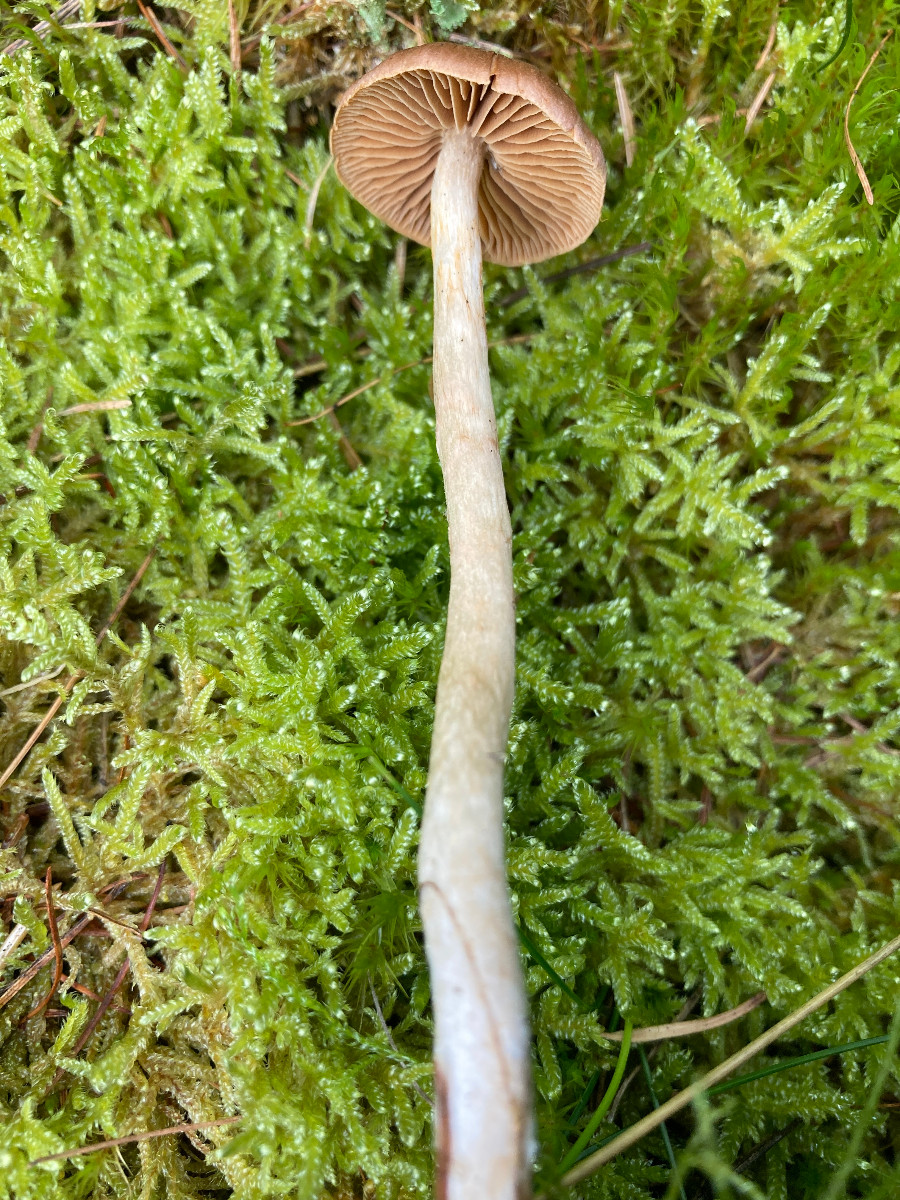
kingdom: Fungi
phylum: Basidiomycota
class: Agaricomycetes
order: Agaricales
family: Cortinariaceae
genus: Cortinarius
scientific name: Cortinarius
